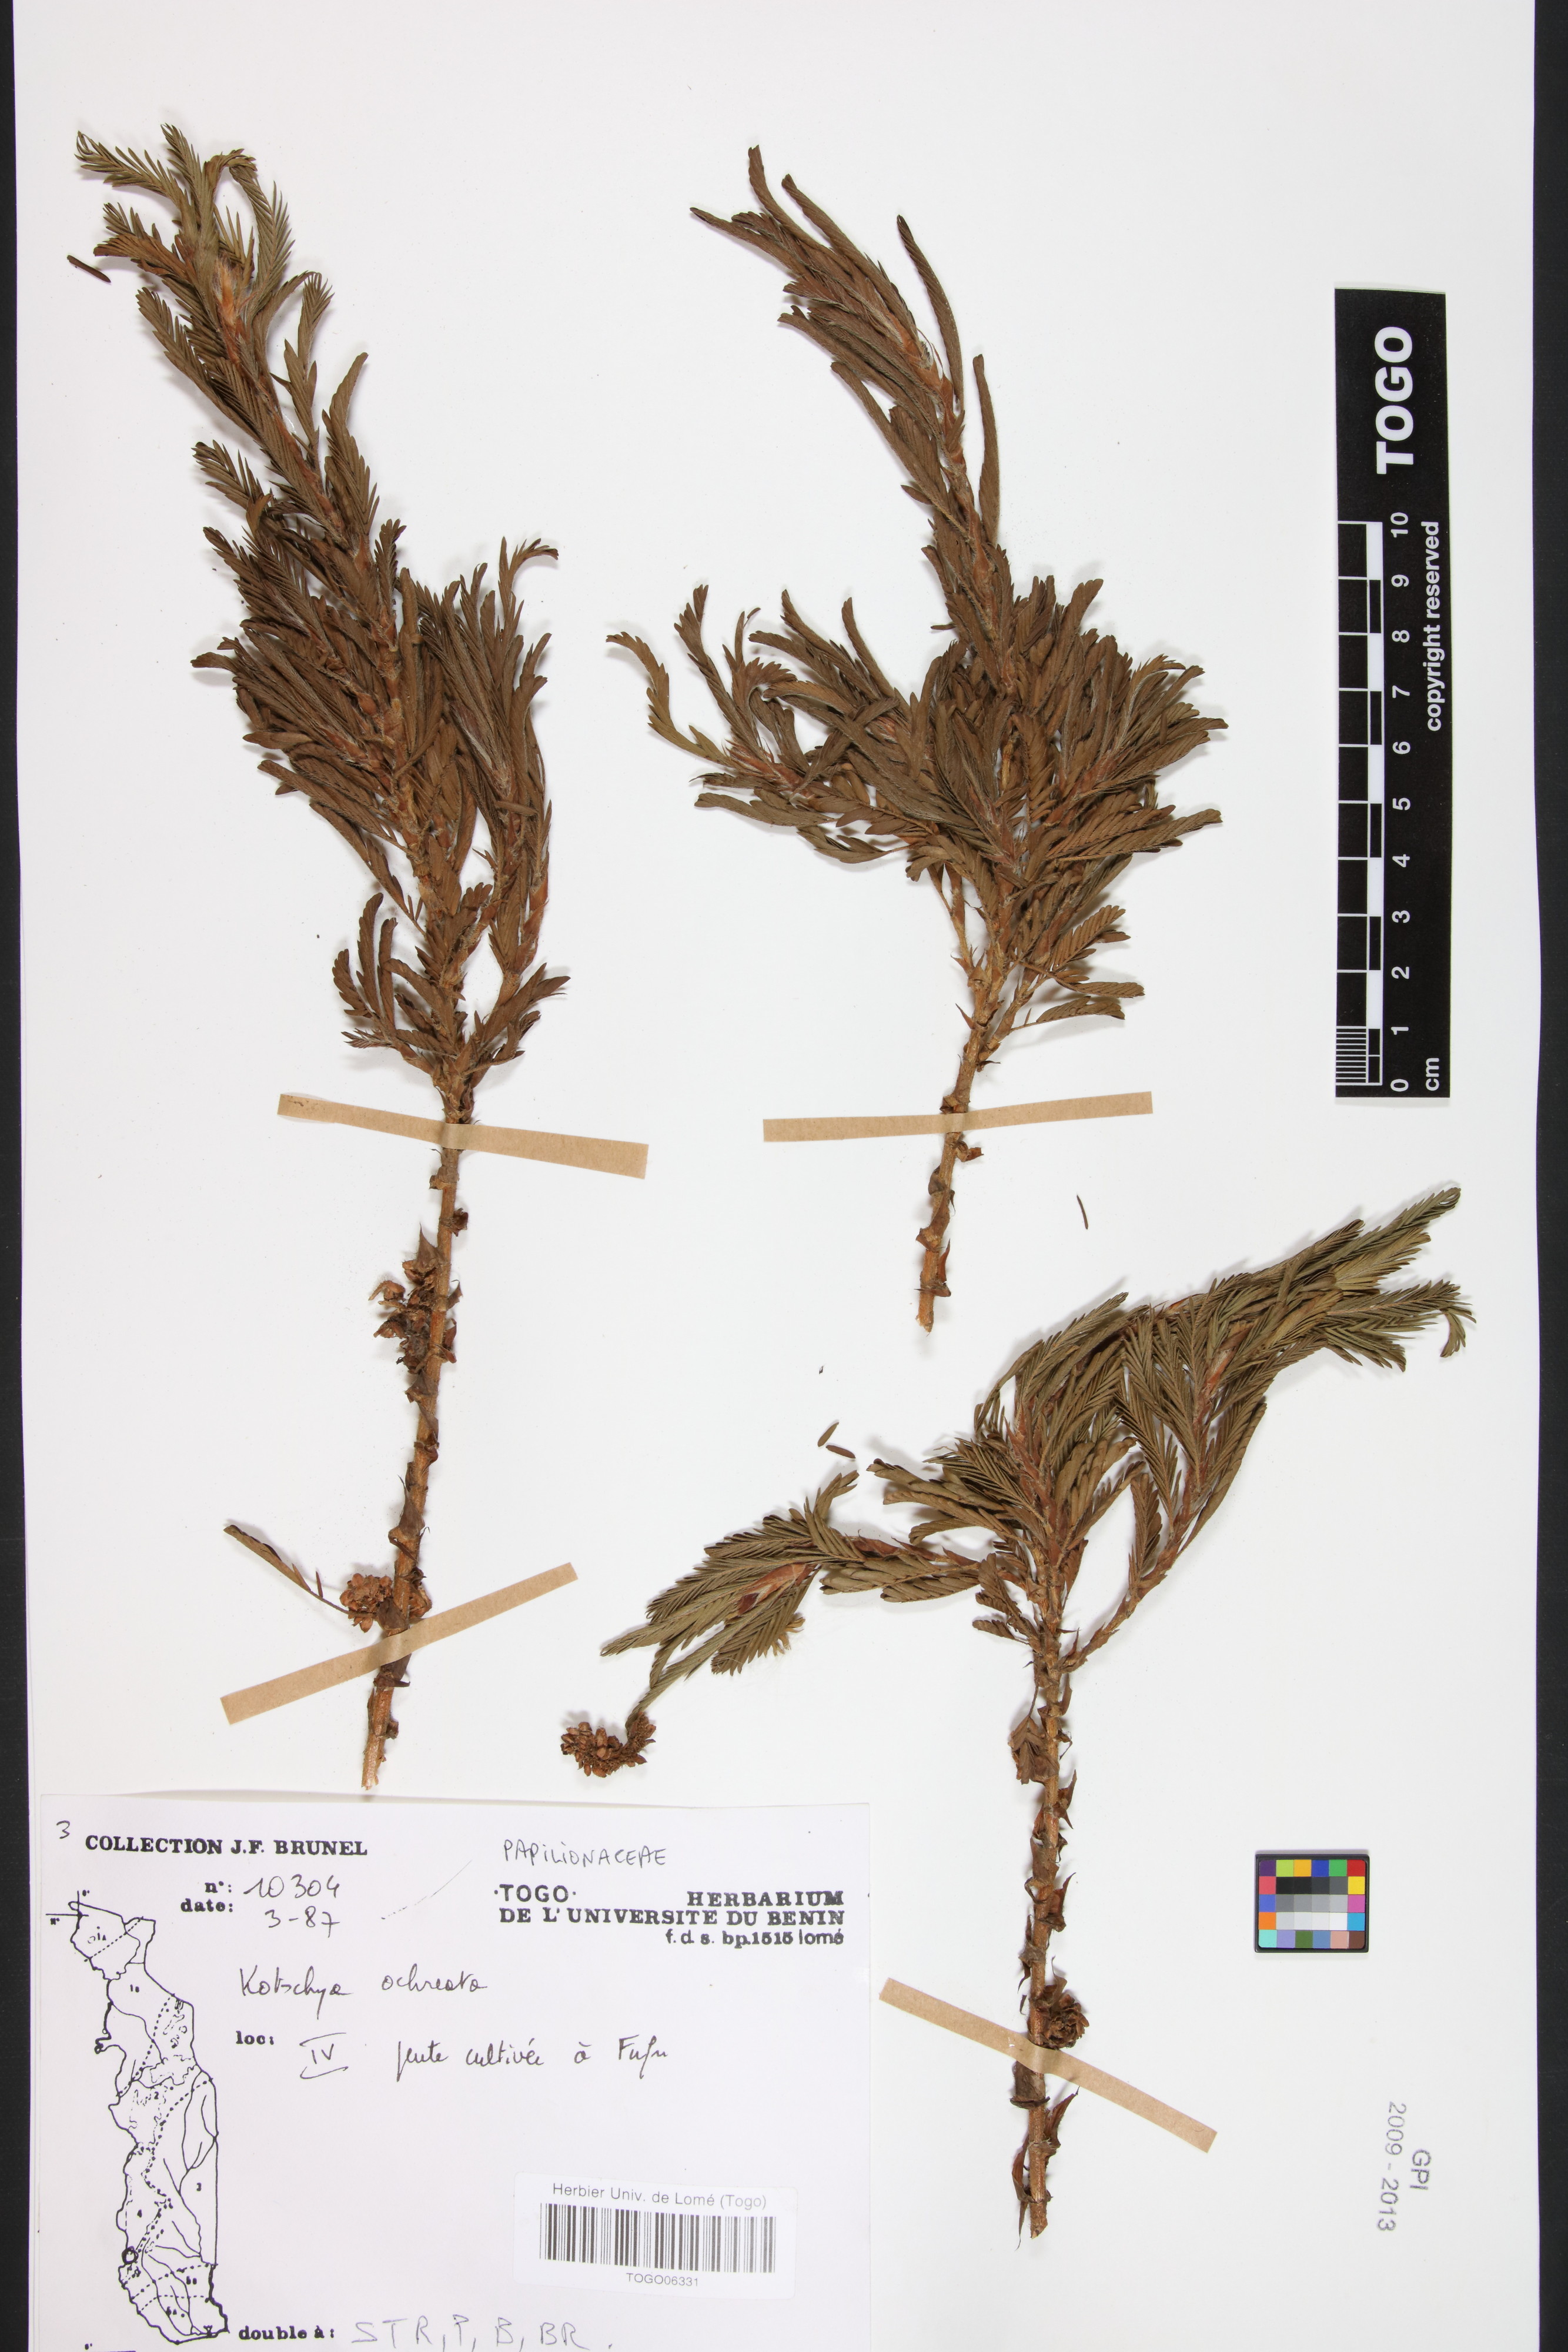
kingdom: Plantae
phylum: Tracheophyta
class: Magnoliopsida
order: Fabales
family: Fabaceae
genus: Kotschya
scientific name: Kotschya ochreata
